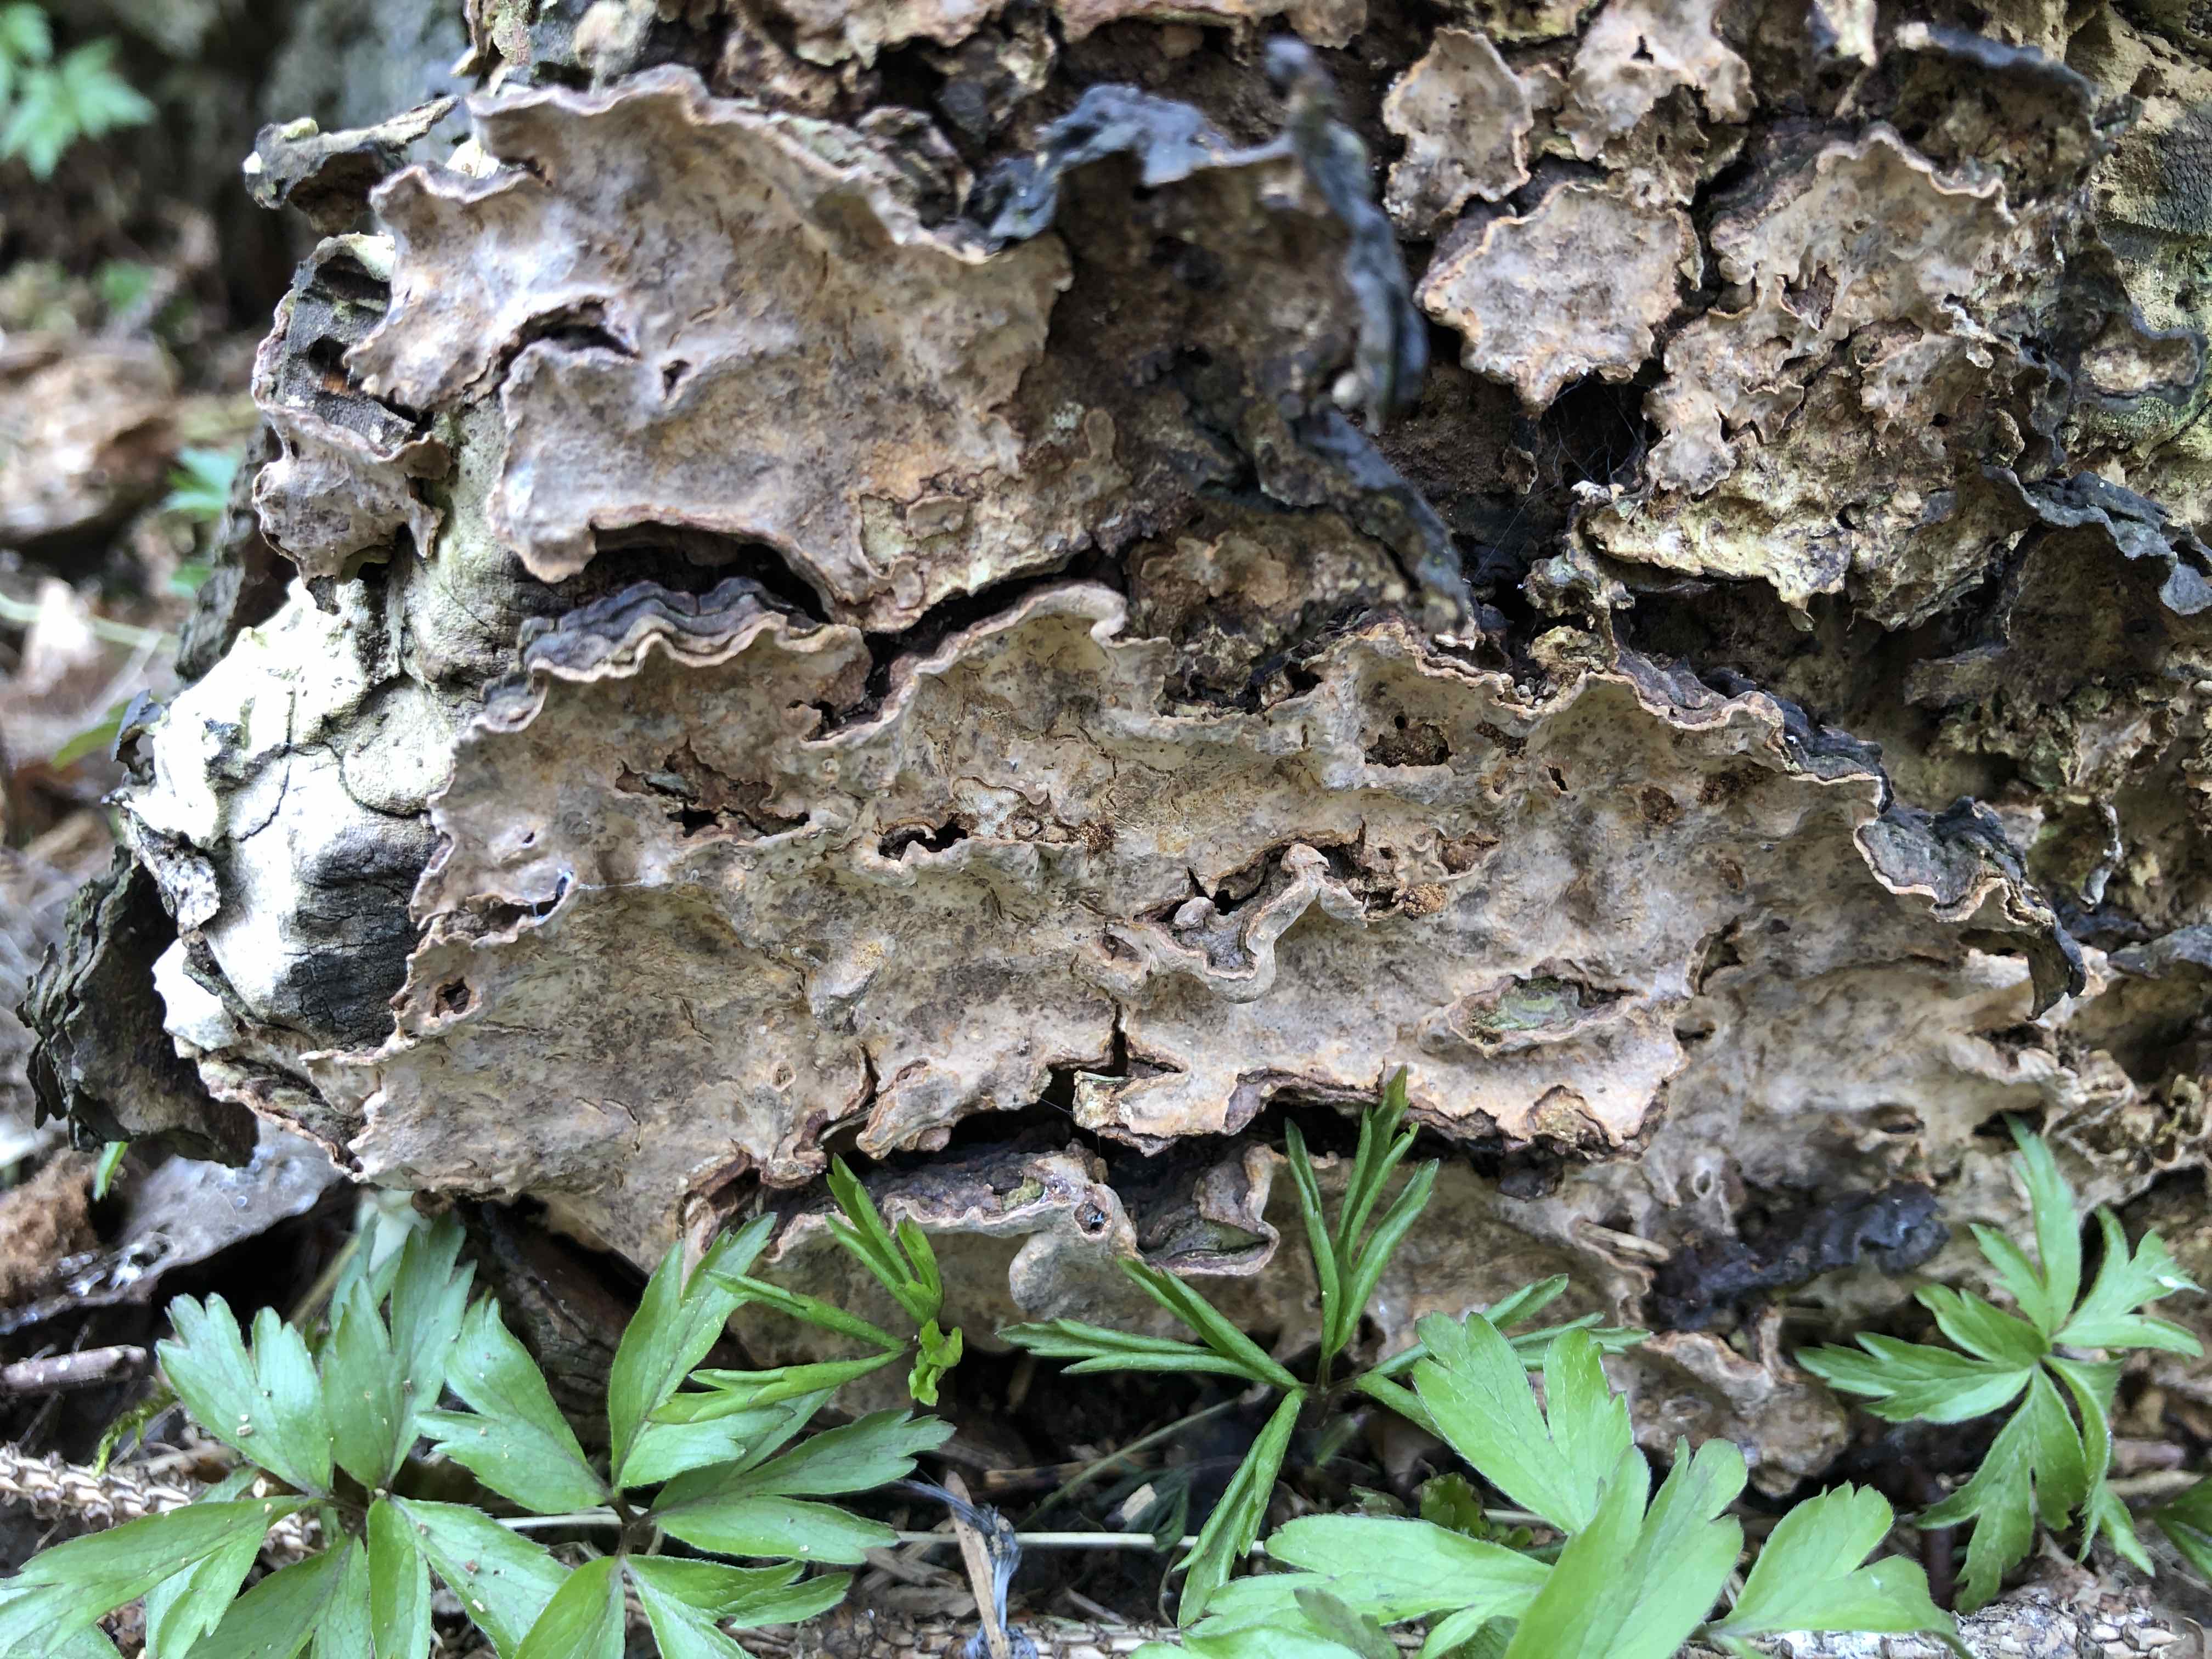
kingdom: Fungi
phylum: Basidiomycota
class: Agaricomycetes
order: Russulales
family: Stereaceae
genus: Stereum
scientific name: Stereum rugosum
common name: rynket lædersvamp
